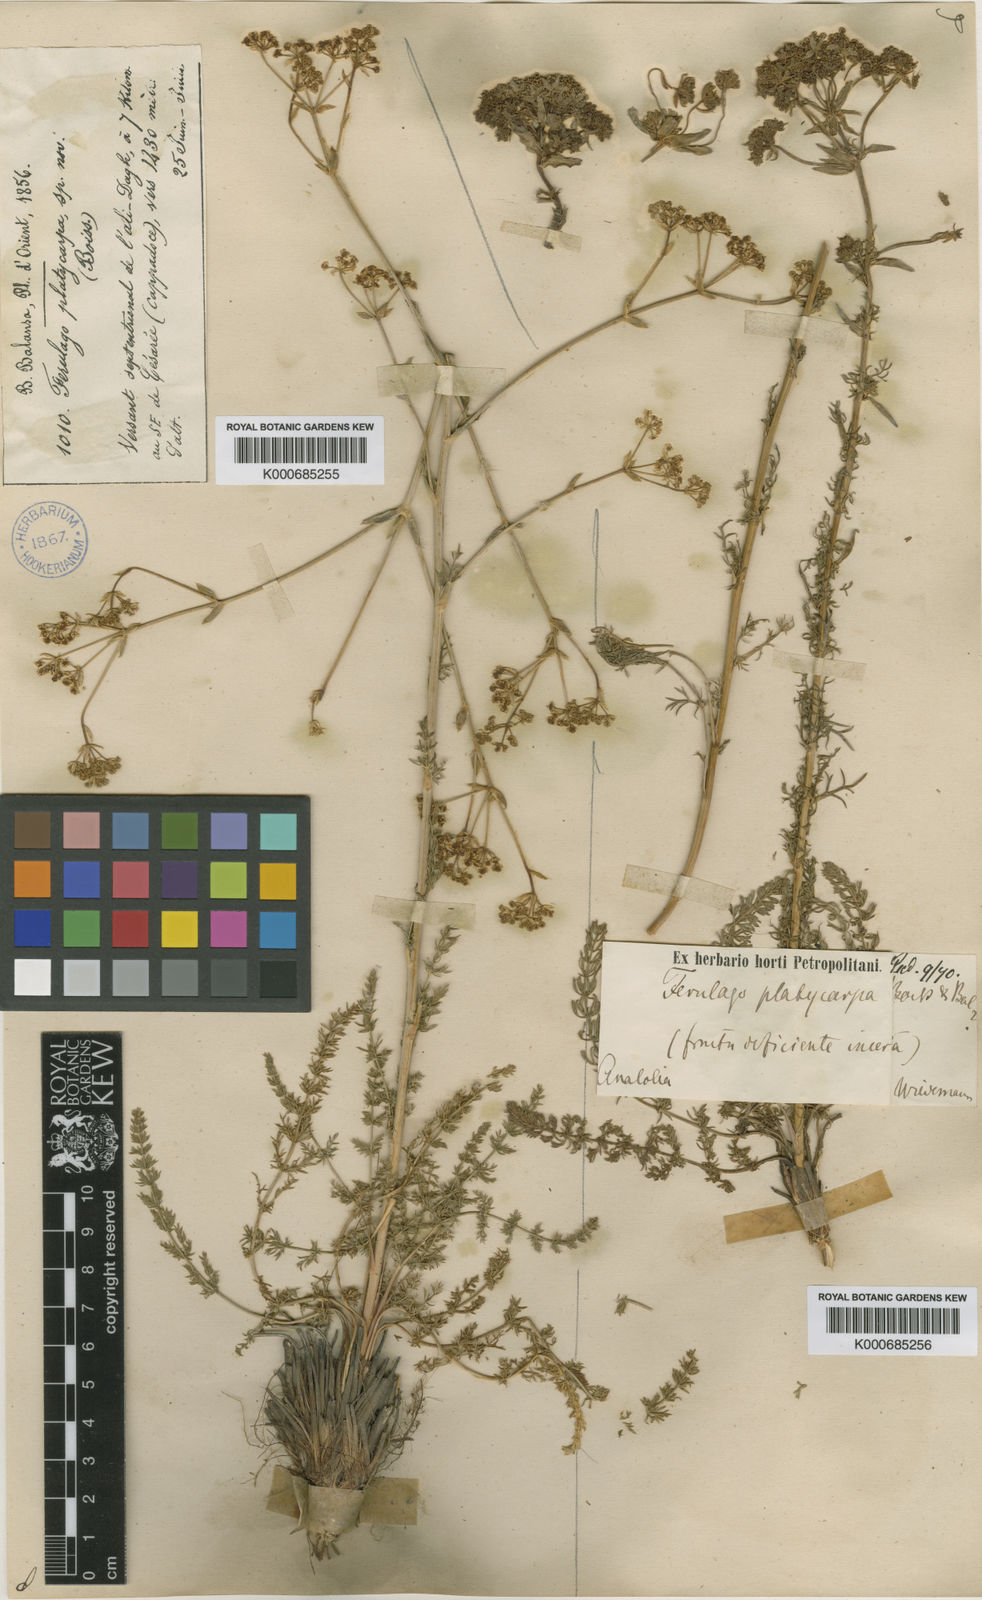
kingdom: Plantae
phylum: Tracheophyta
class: Magnoliopsida
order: Apiales
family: Apiaceae
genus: Ferulago
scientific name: Ferulago platycarpa
